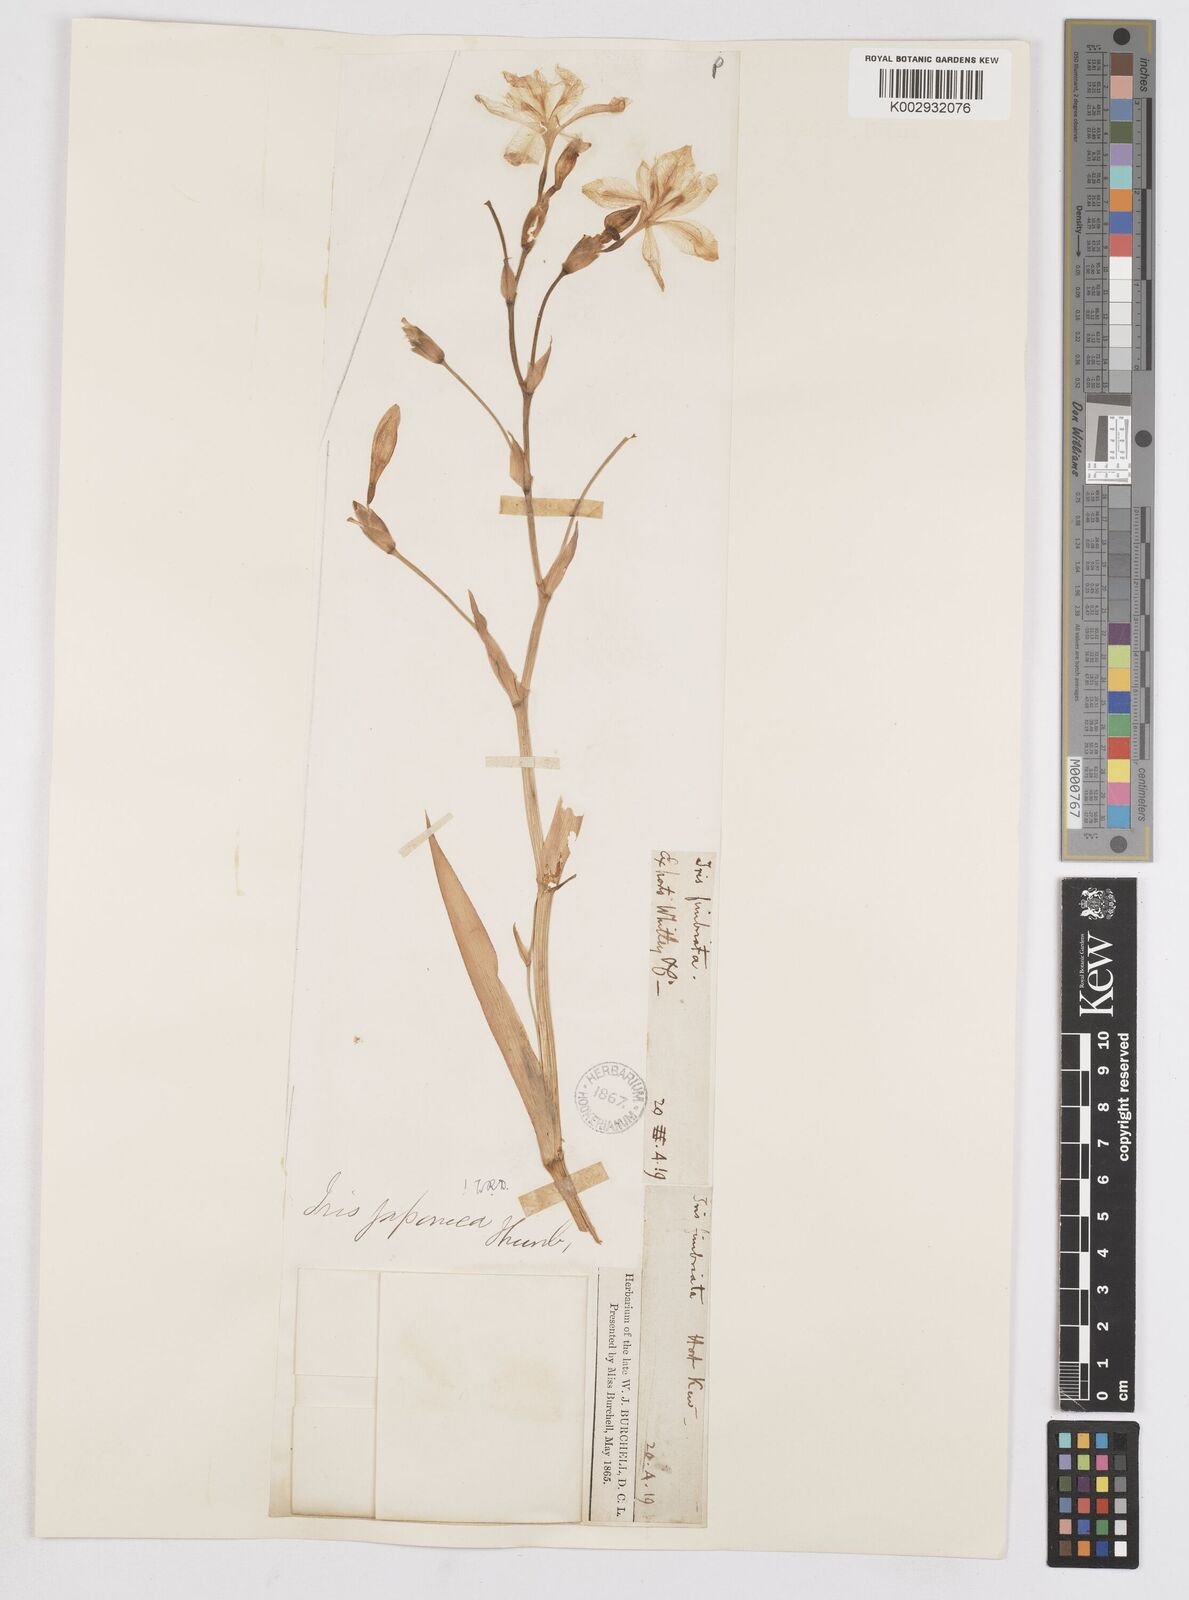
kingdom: Plantae
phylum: Tracheophyta
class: Liliopsida
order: Asparagales
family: Iridaceae
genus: Iris
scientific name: Iris japonica
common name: Butterfly-flower
